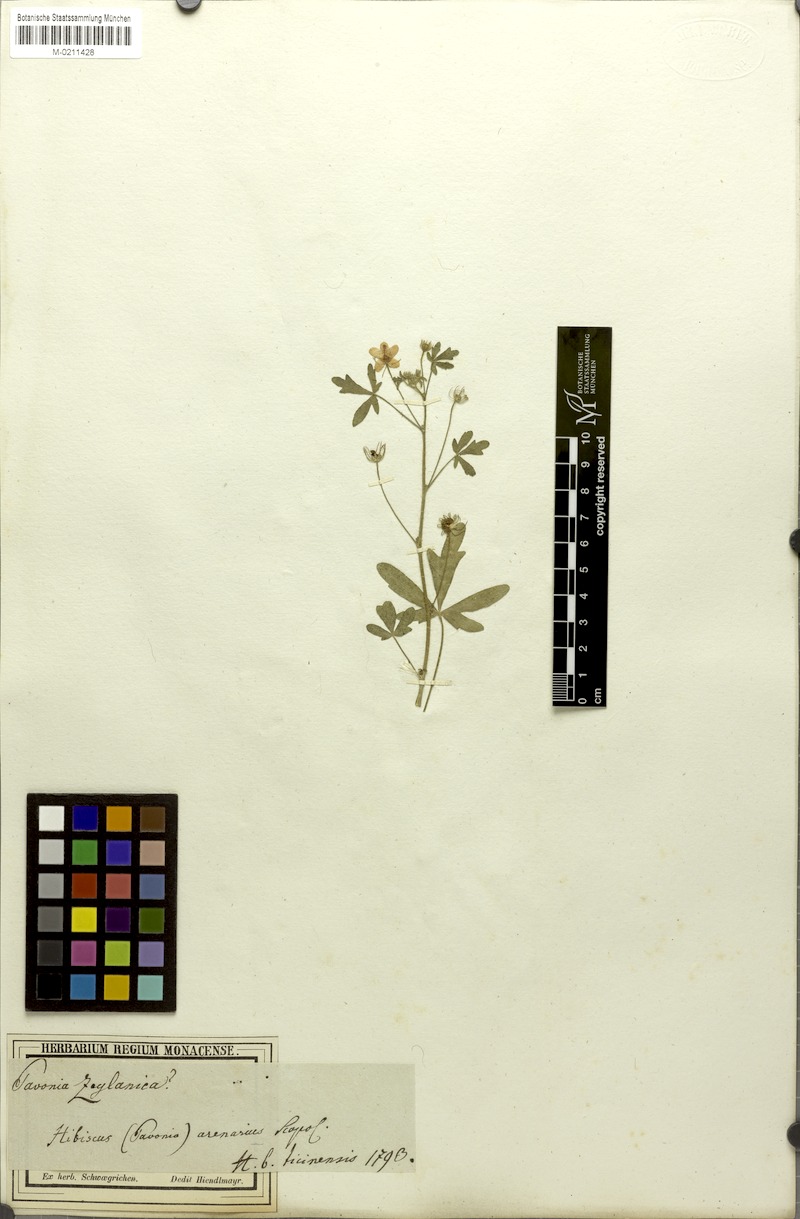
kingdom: Plantae
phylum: Tracheophyta
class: Magnoliopsida
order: Malvales
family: Malvaceae
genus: Pavonia
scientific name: Pavonia zeylonica
